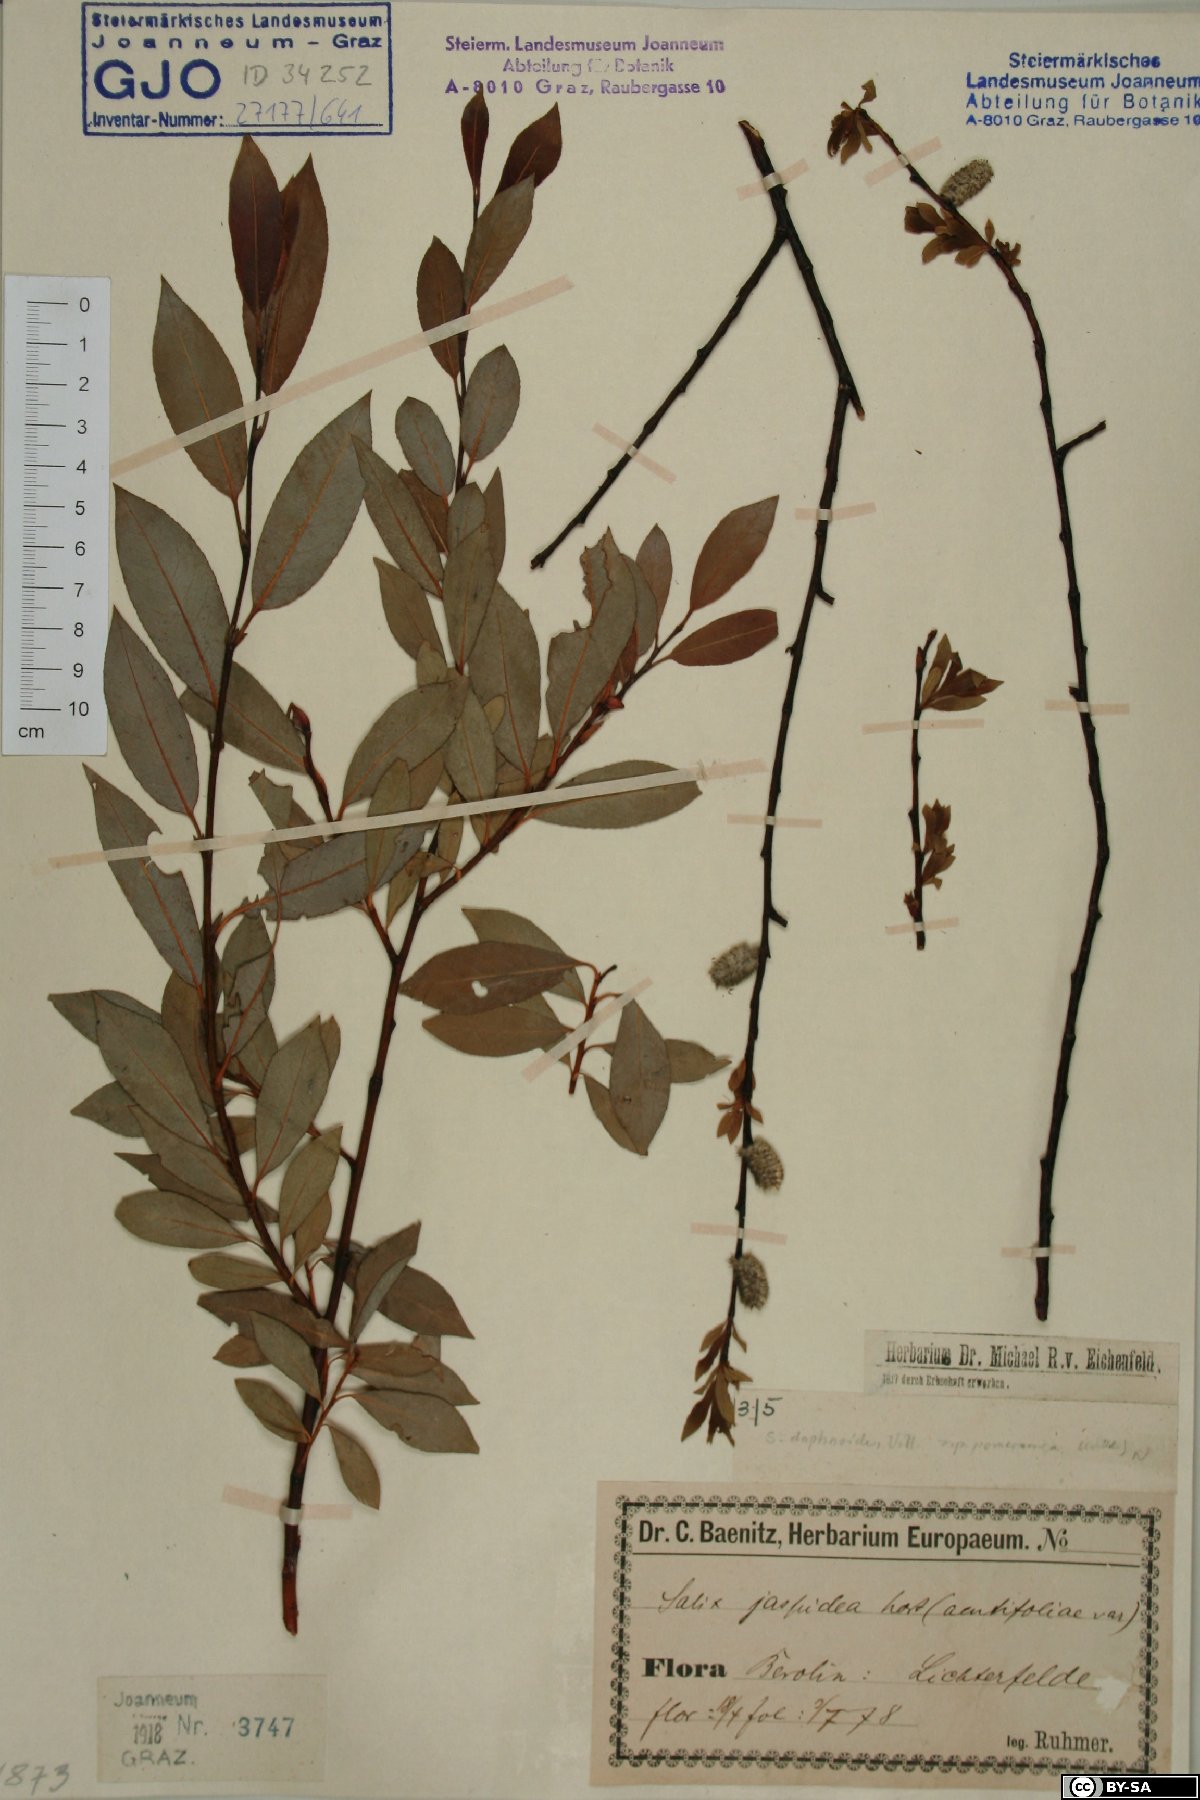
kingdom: Plantae
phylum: Tracheophyta
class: Magnoliopsida
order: Malpighiales
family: Salicaceae
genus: Salix
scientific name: Salix daphnoides
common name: European violet-willow
